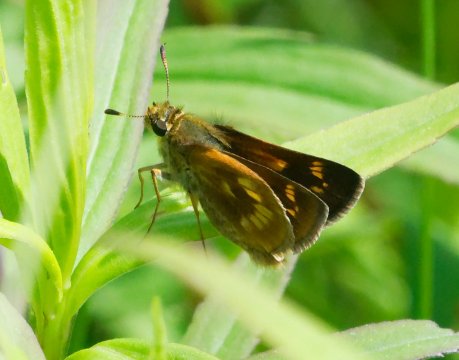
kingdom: Animalia
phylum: Arthropoda
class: Insecta
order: Lepidoptera
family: Hesperiidae
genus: Polites
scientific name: Polites
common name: Long Dash Skipper
